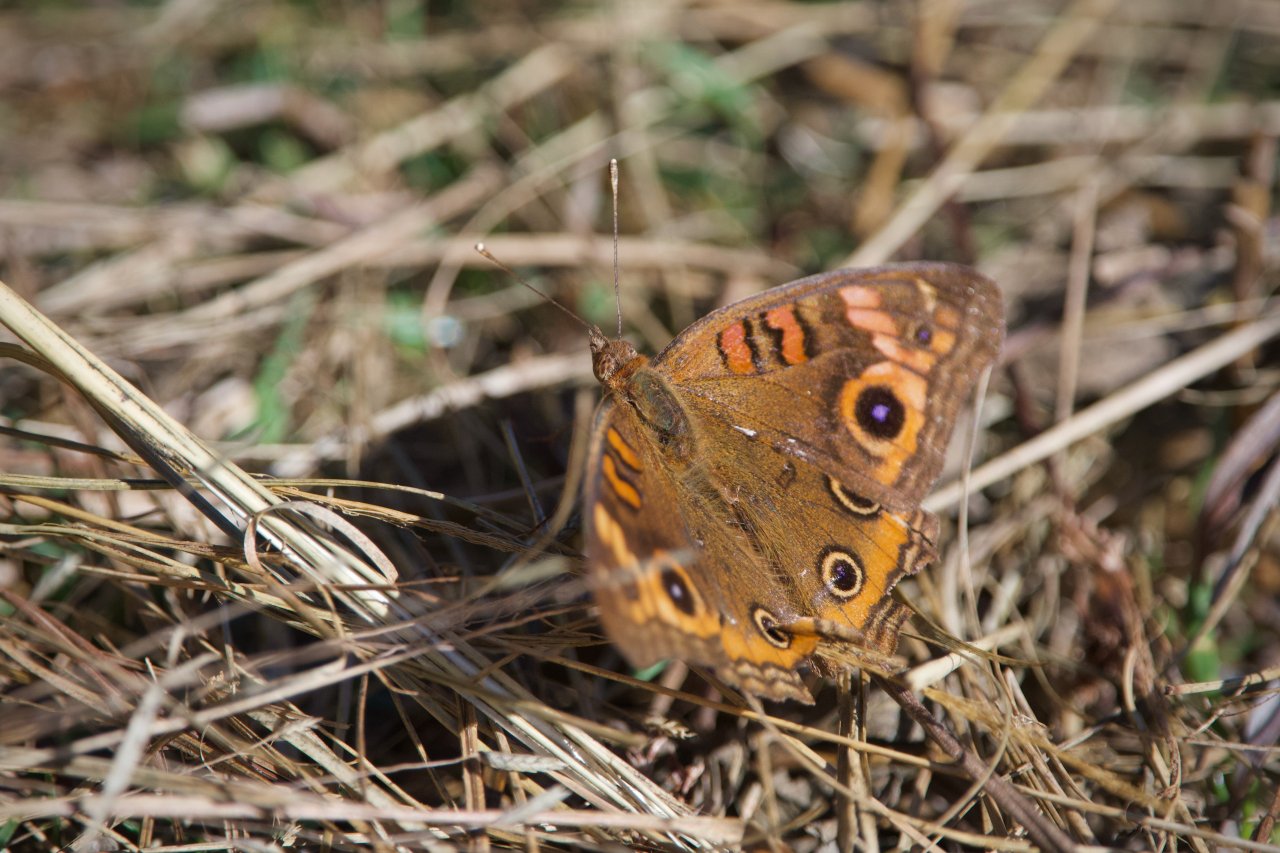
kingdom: Animalia
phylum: Arthropoda
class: Insecta
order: Lepidoptera
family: Nymphalidae
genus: Junonia
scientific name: Junonia evarete
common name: Mangrove Buckeye
